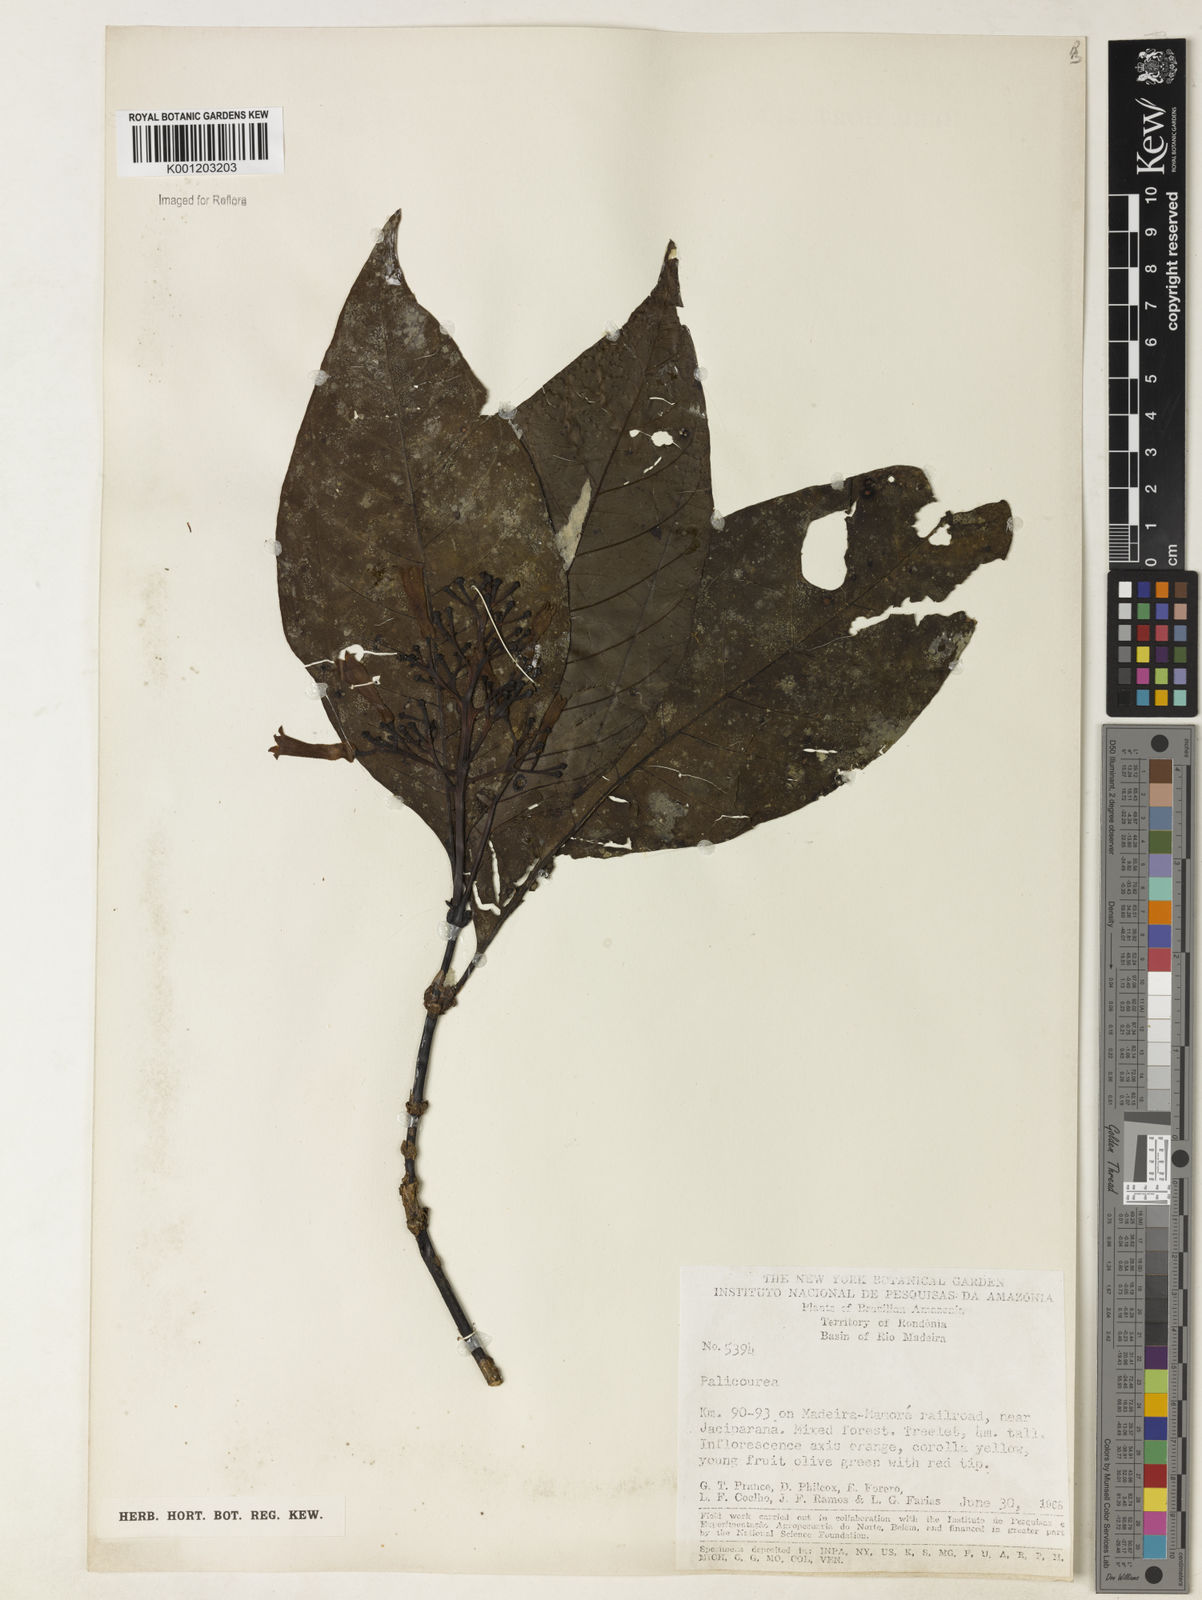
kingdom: Plantae
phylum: Tracheophyta
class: Magnoliopsida
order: Gentianales
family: Rubiaceae
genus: Palicourea
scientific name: Palicourea
